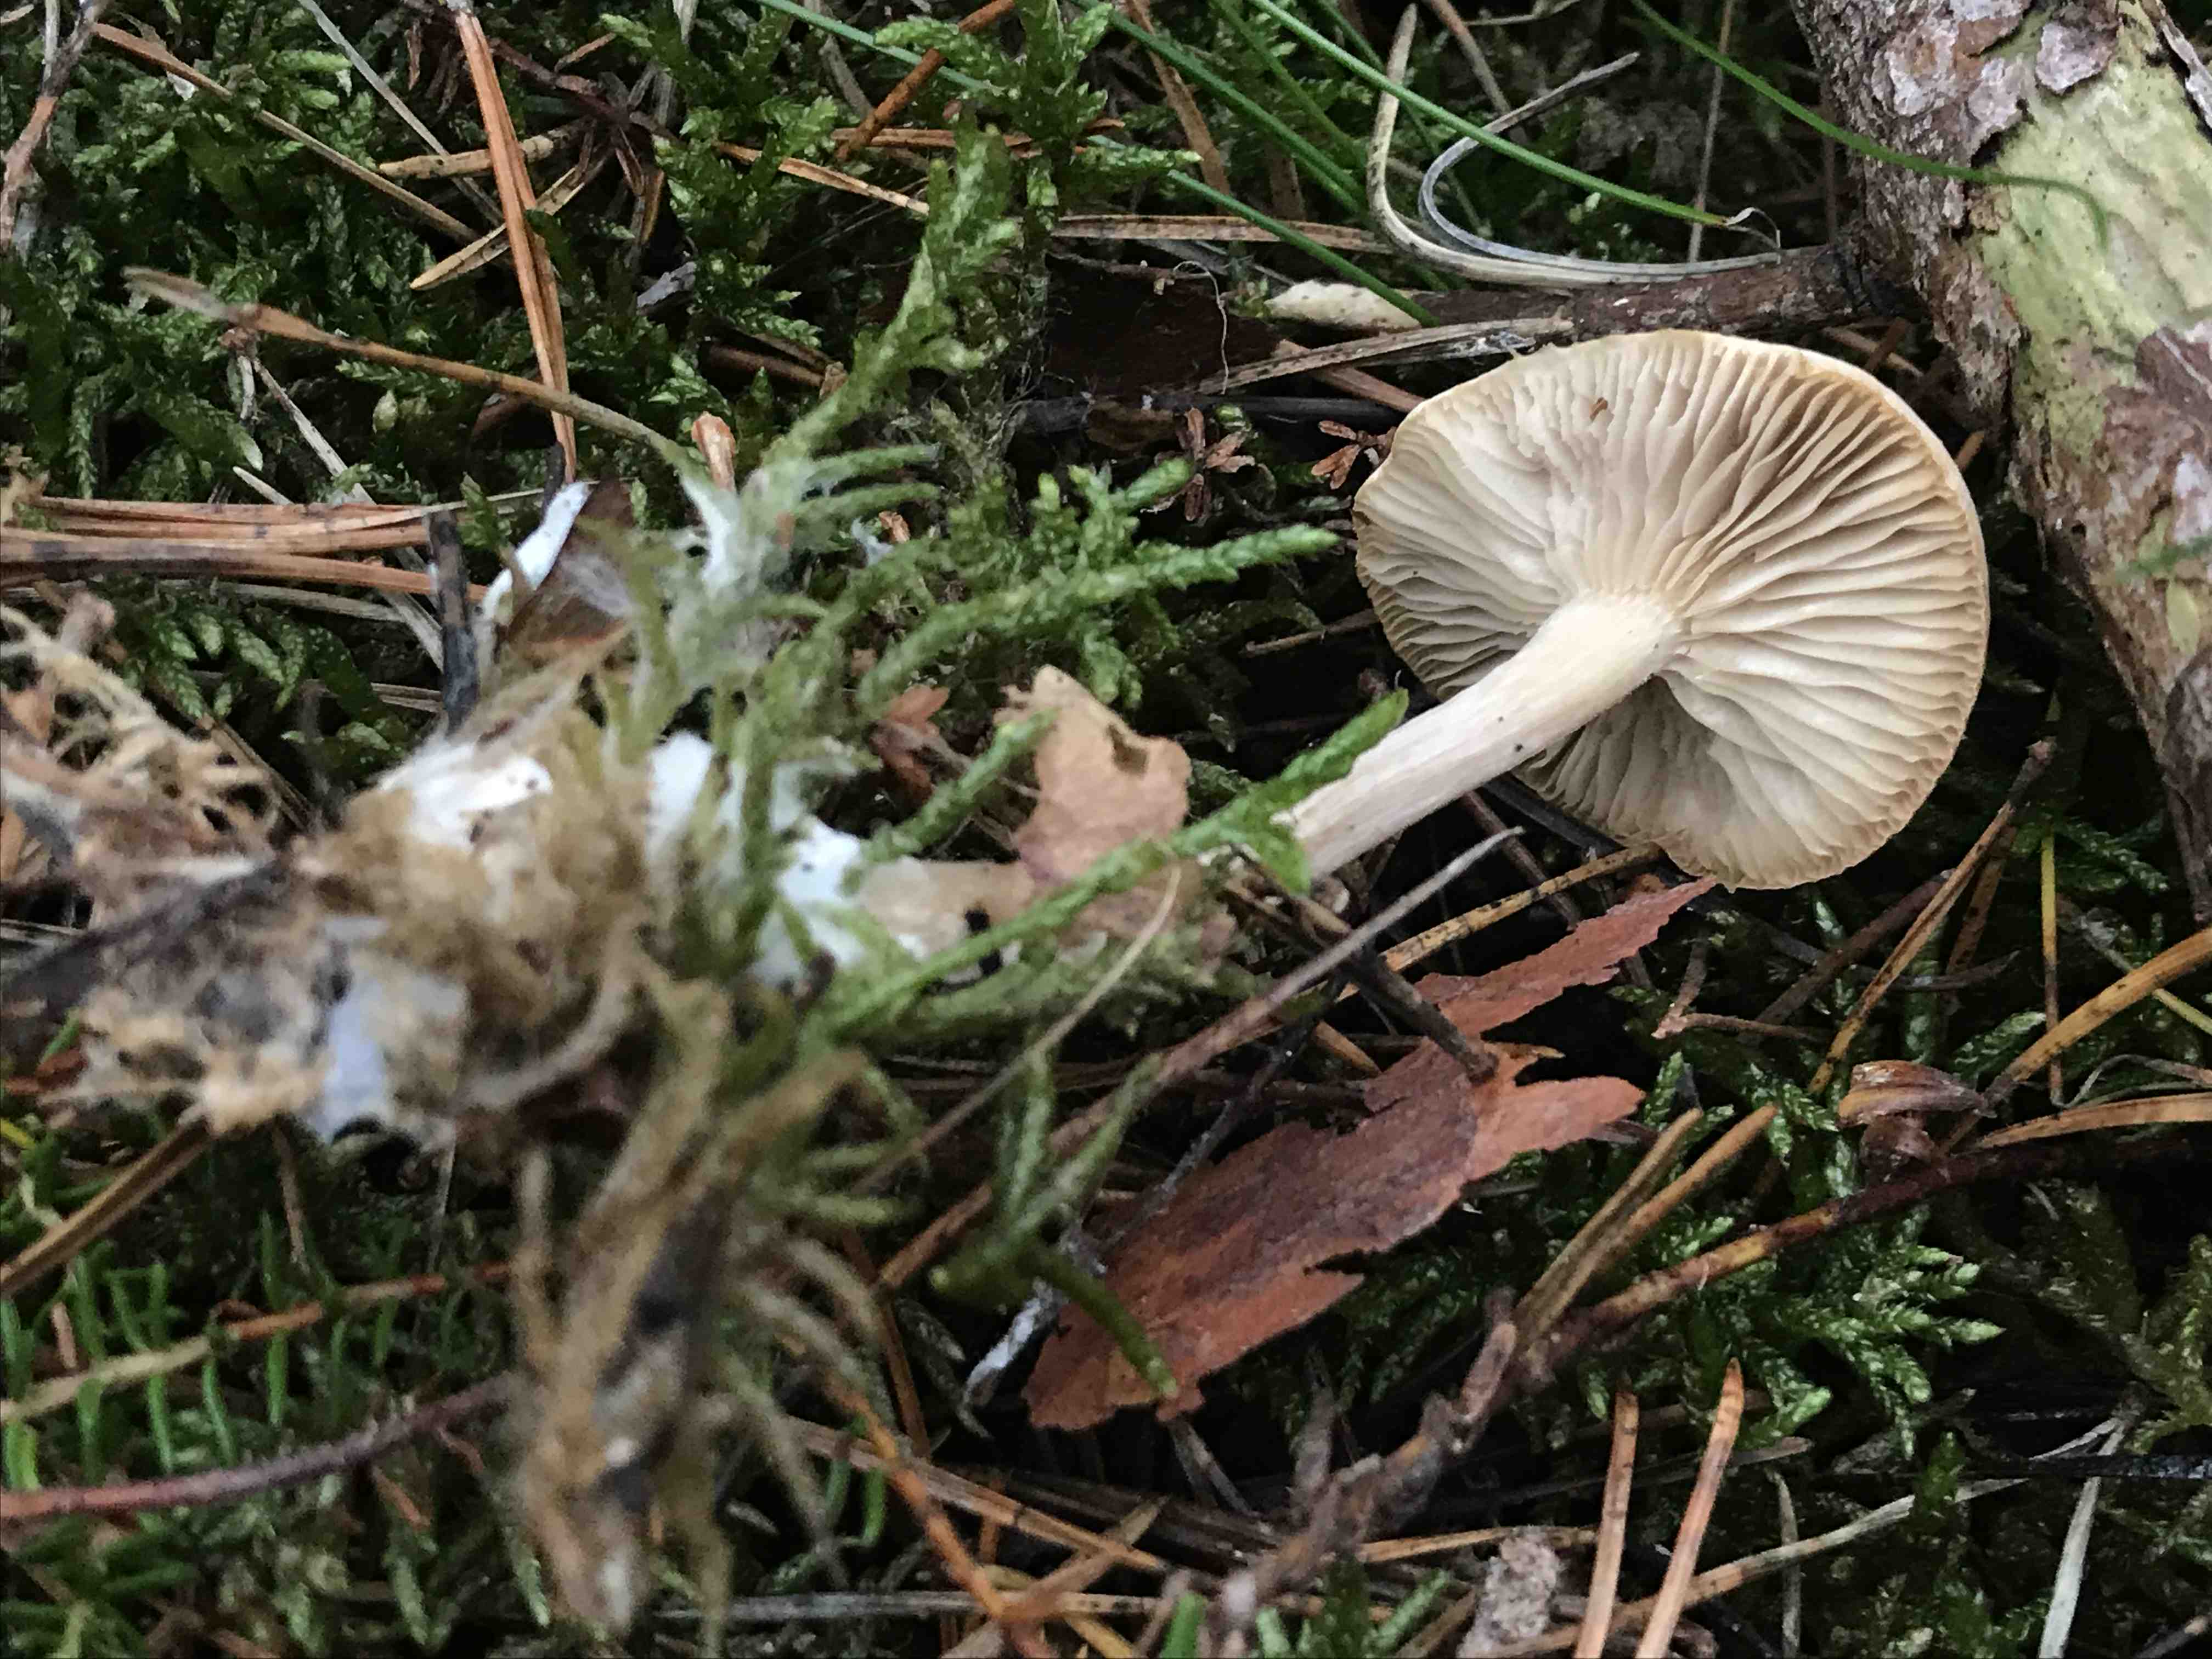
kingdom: Fungi
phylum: Basidiomycota
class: Agaricomycetes
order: Agaricales
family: Tricholomataceae
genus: Clitocybe
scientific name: Clitocybe
